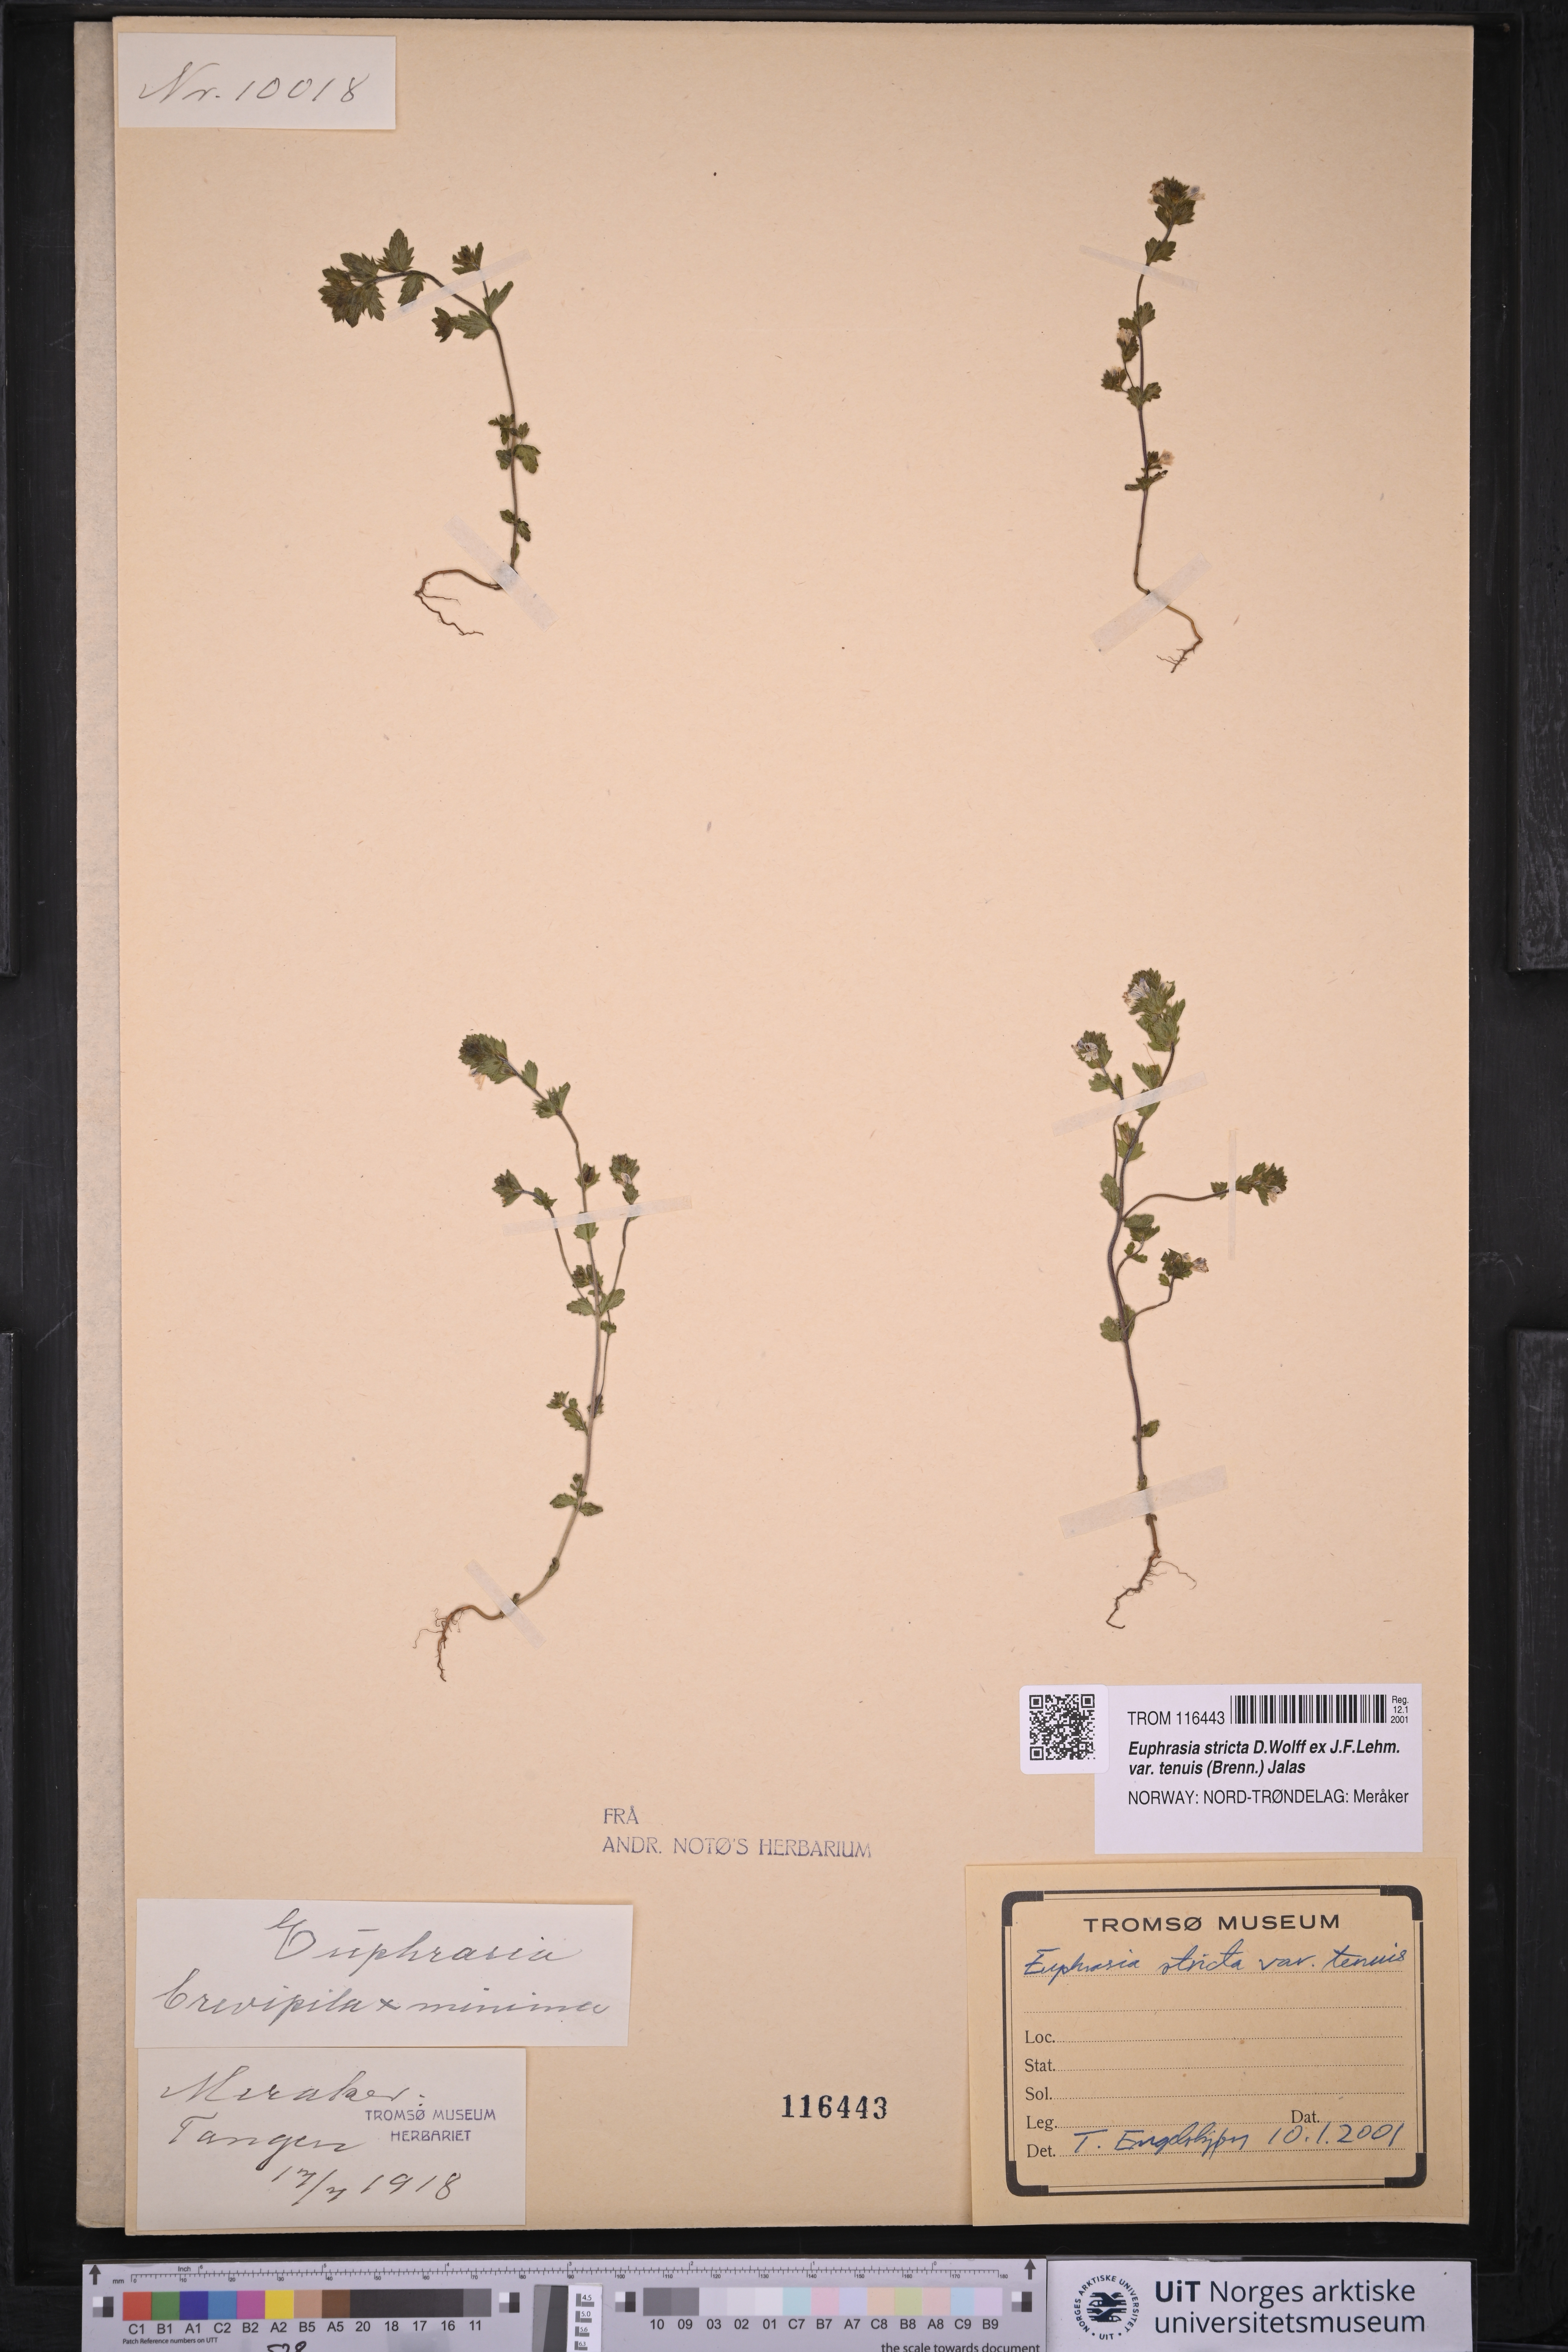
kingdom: Plantae
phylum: Tracheophyta
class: Magnoliopsida
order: Lamiales
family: Orobanchaceae
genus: Euphrasia
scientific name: Euphrasia vernalis
